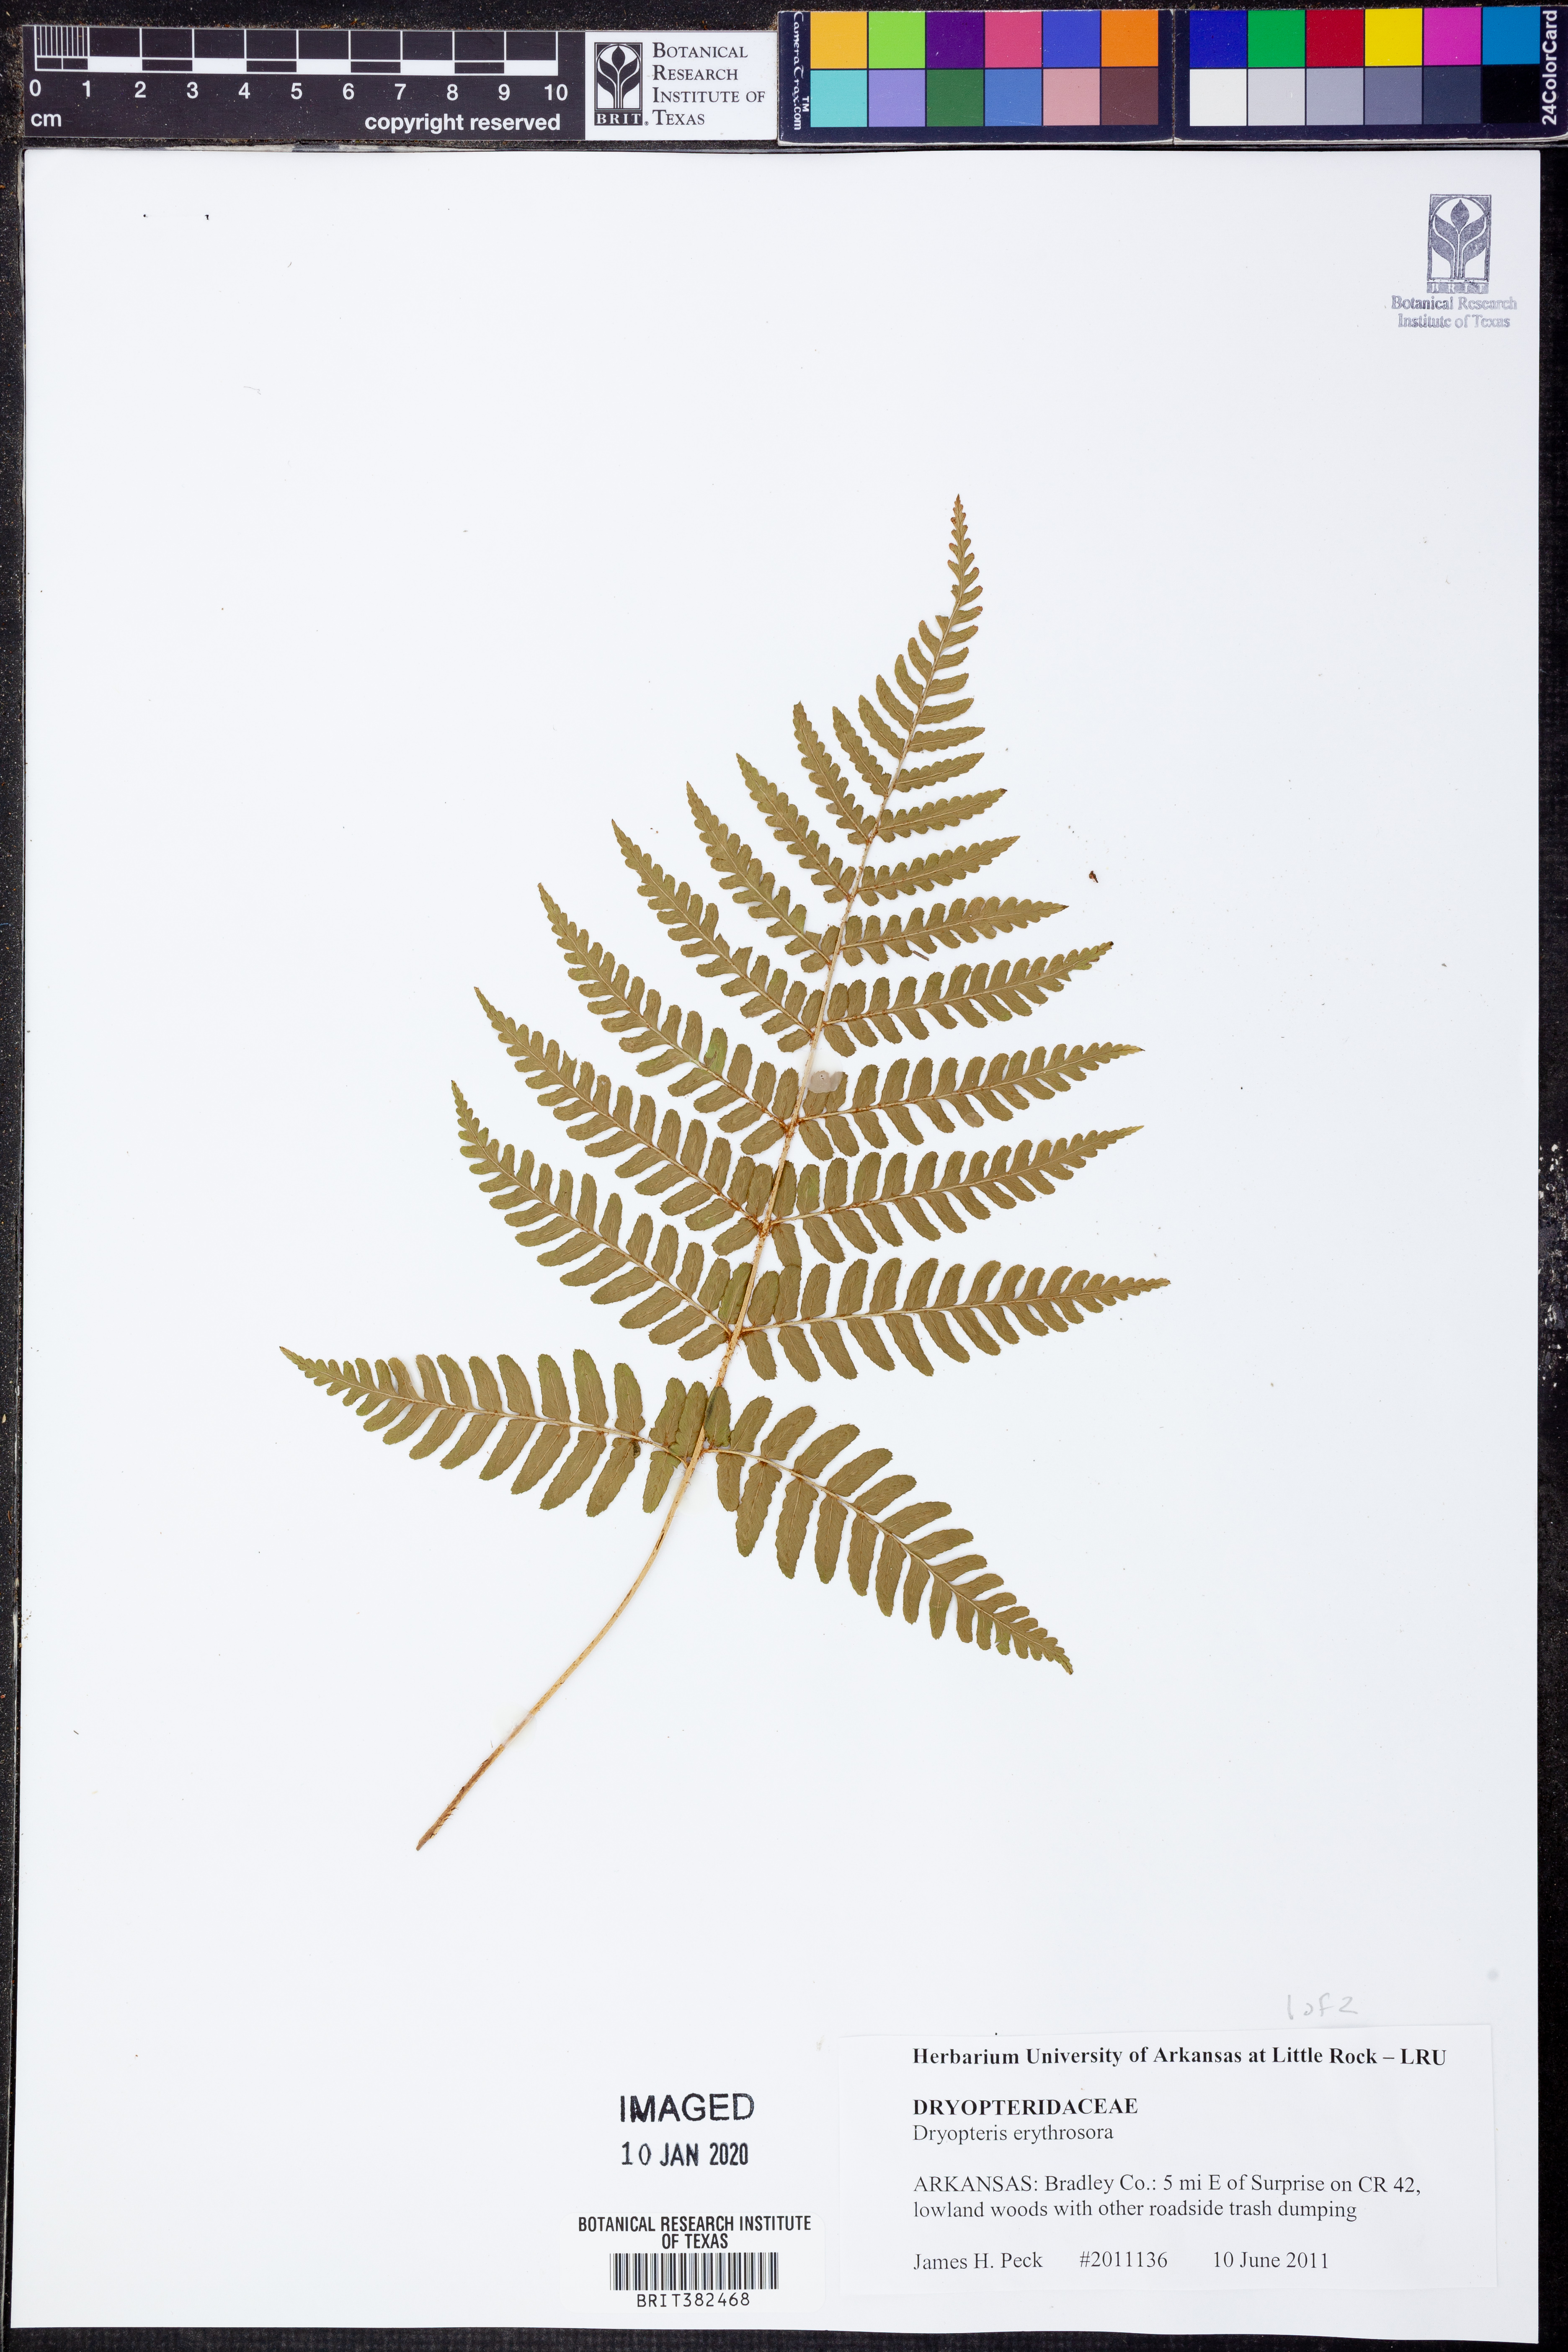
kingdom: Plantae
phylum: Tracheophyta
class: Polypodiopsida
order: Polypodiales
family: Dryopteridaceae
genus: Dryopteris
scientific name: Dryopteris erythrosora
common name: Autumn fern
